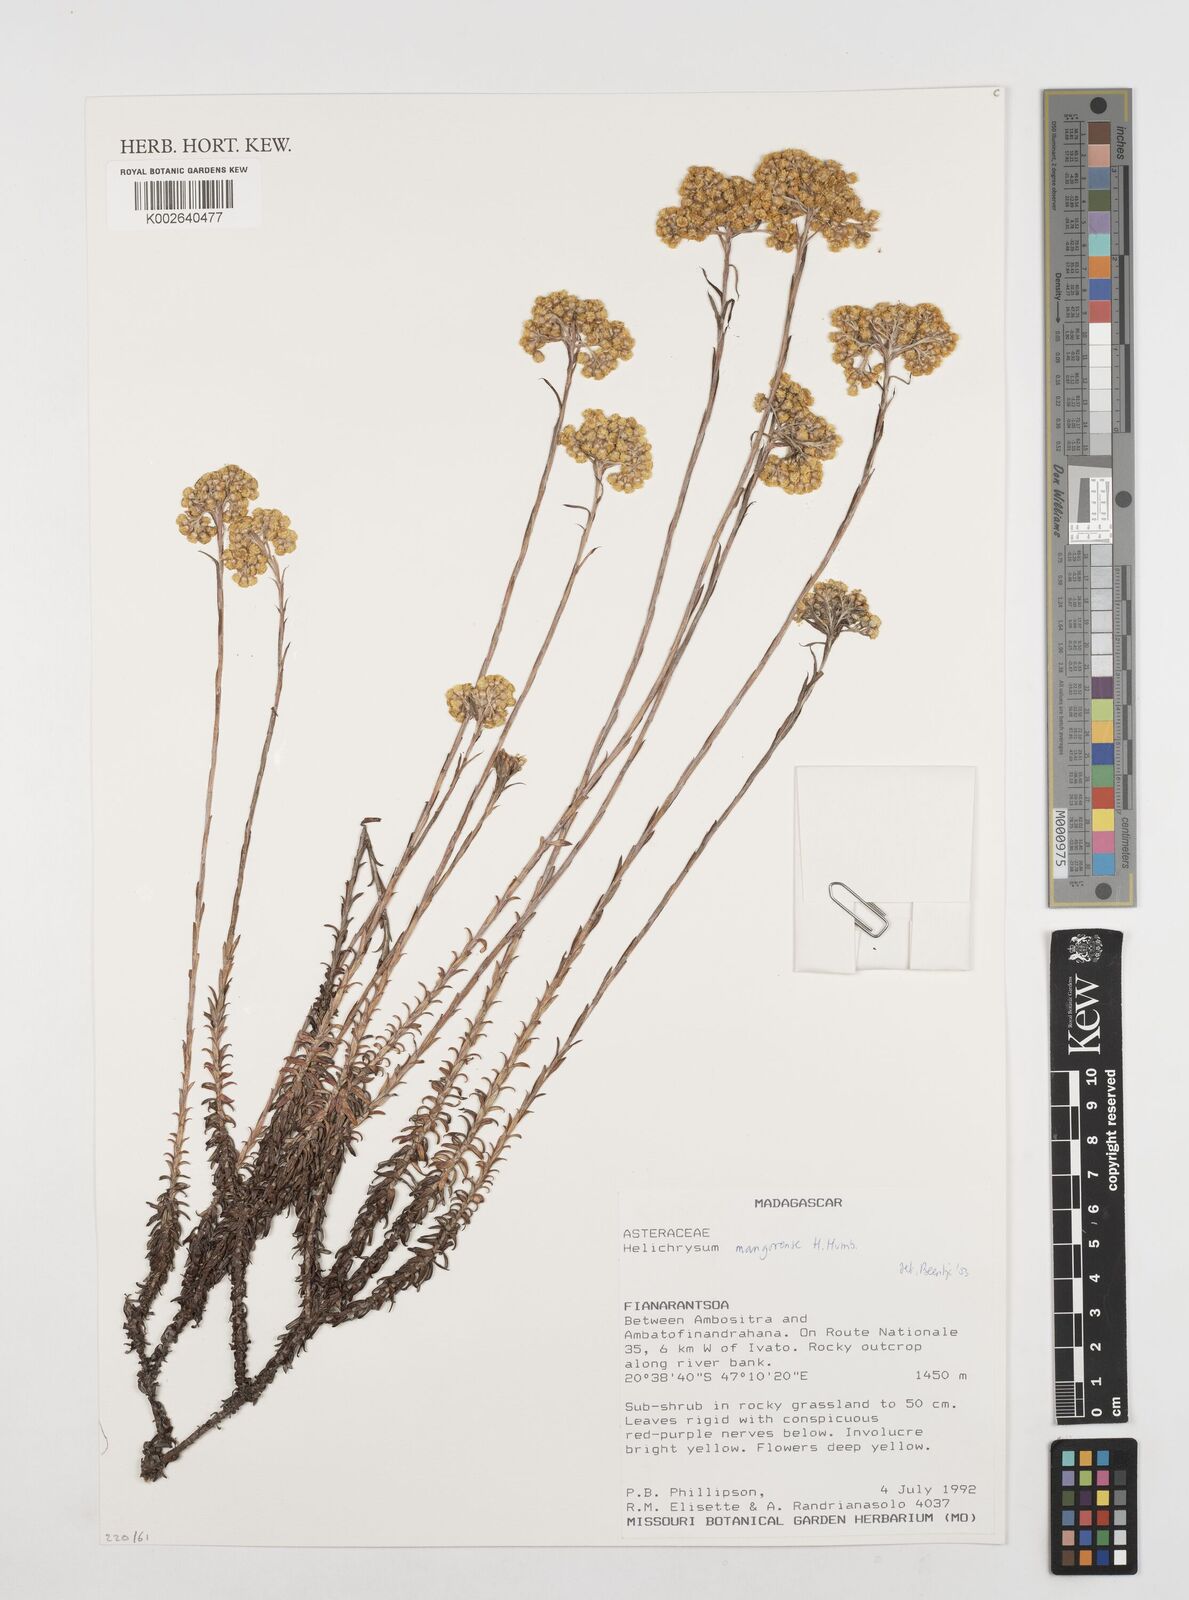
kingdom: Plantae
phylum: Tracheophyta
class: Magnoliopsida
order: Asterales
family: Asteraceae
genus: Helichrysum
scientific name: Helichrysum mangorense
